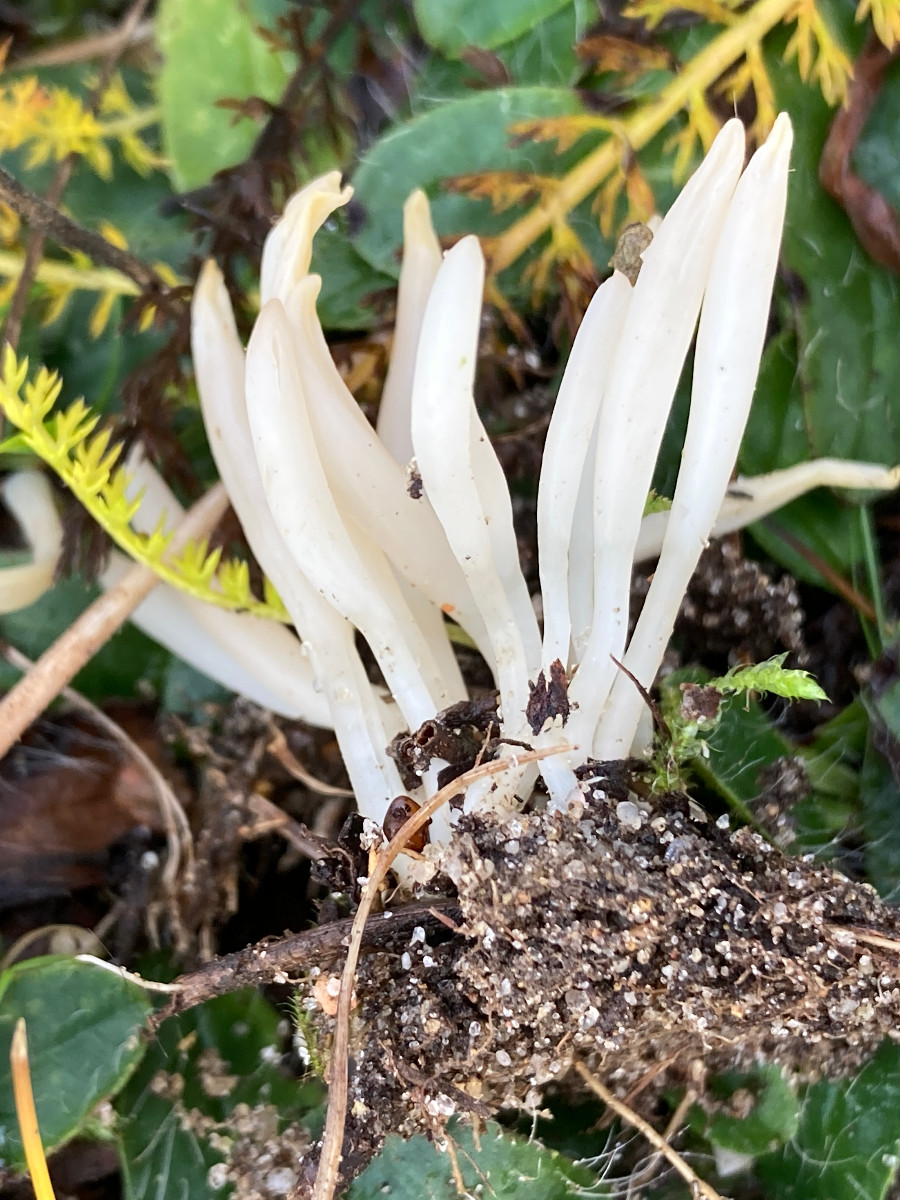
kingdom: Fungi
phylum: Basidiomycota
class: Agaricomycetes
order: Agaricales
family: Clavariaceae
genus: Clavaria
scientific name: Clavaria
